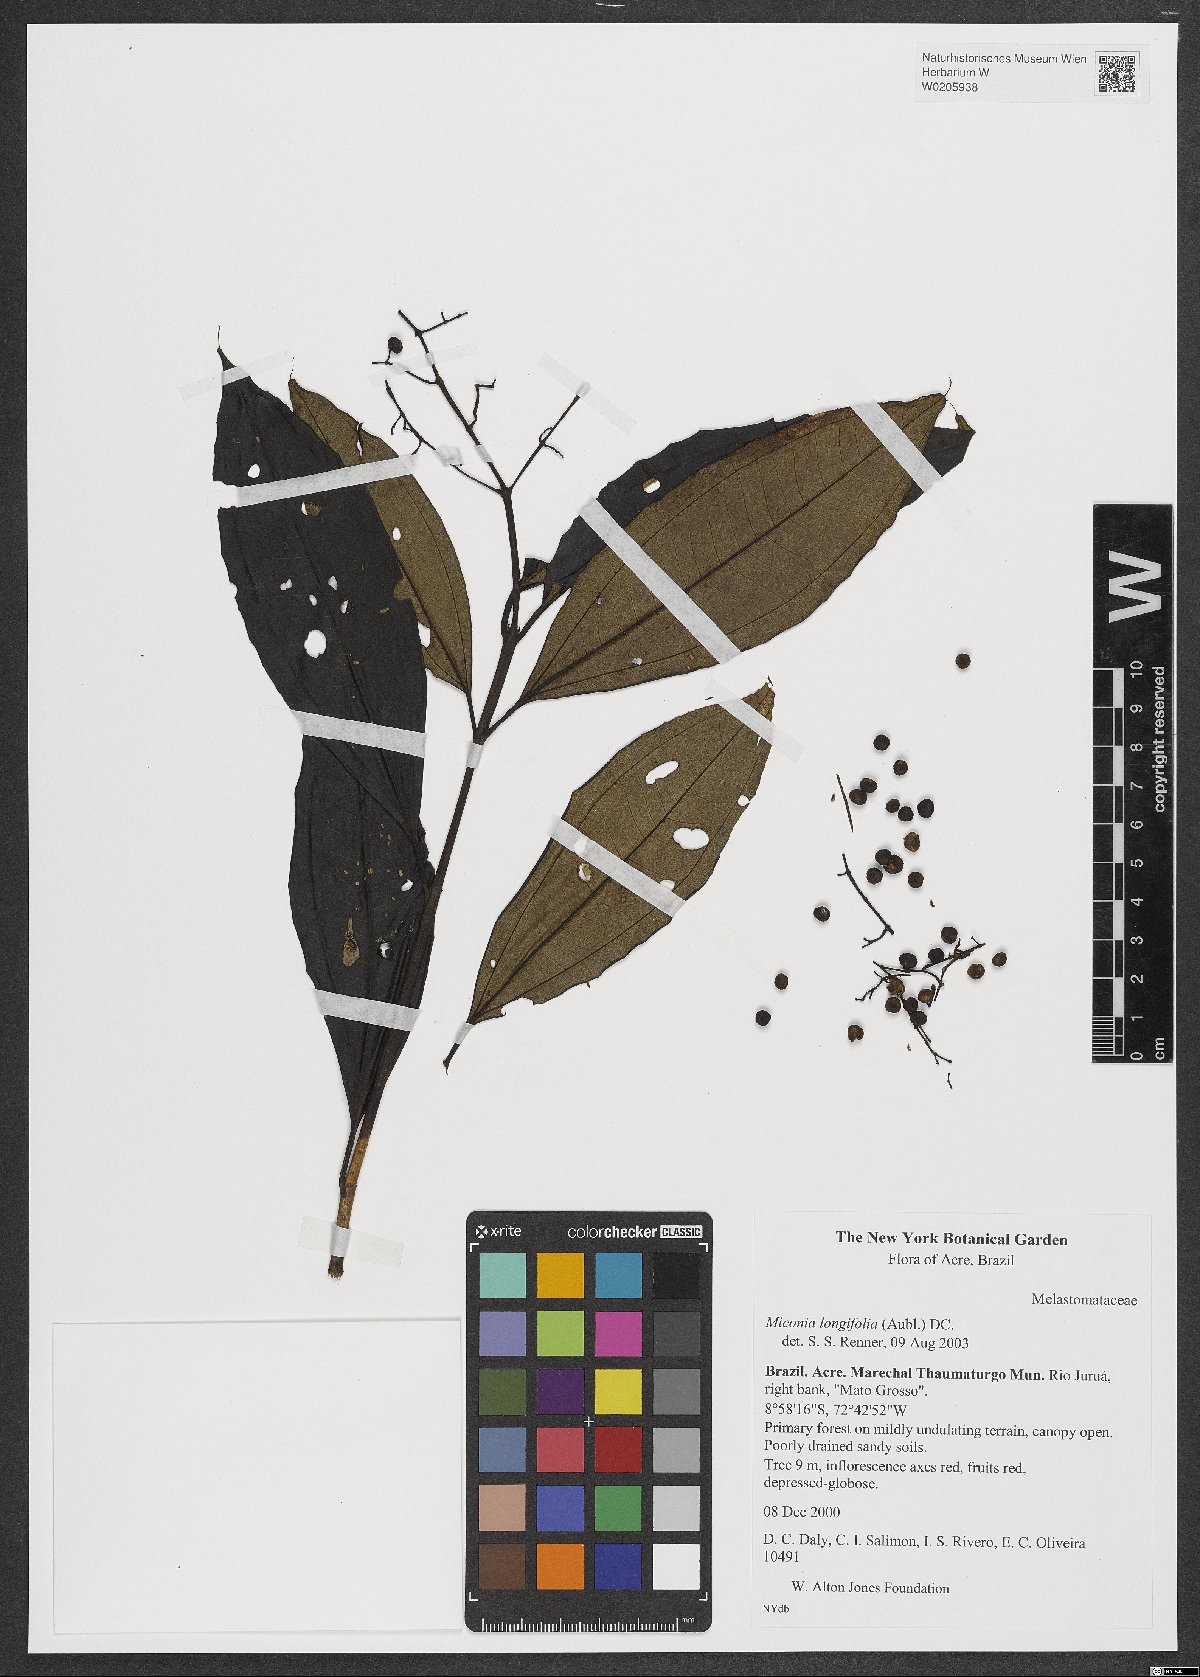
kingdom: Plantae
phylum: Tracheophyta
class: Magnoliopsida
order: Myrtales
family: Melastomataceae
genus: Miconia
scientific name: Miconia longifolia
